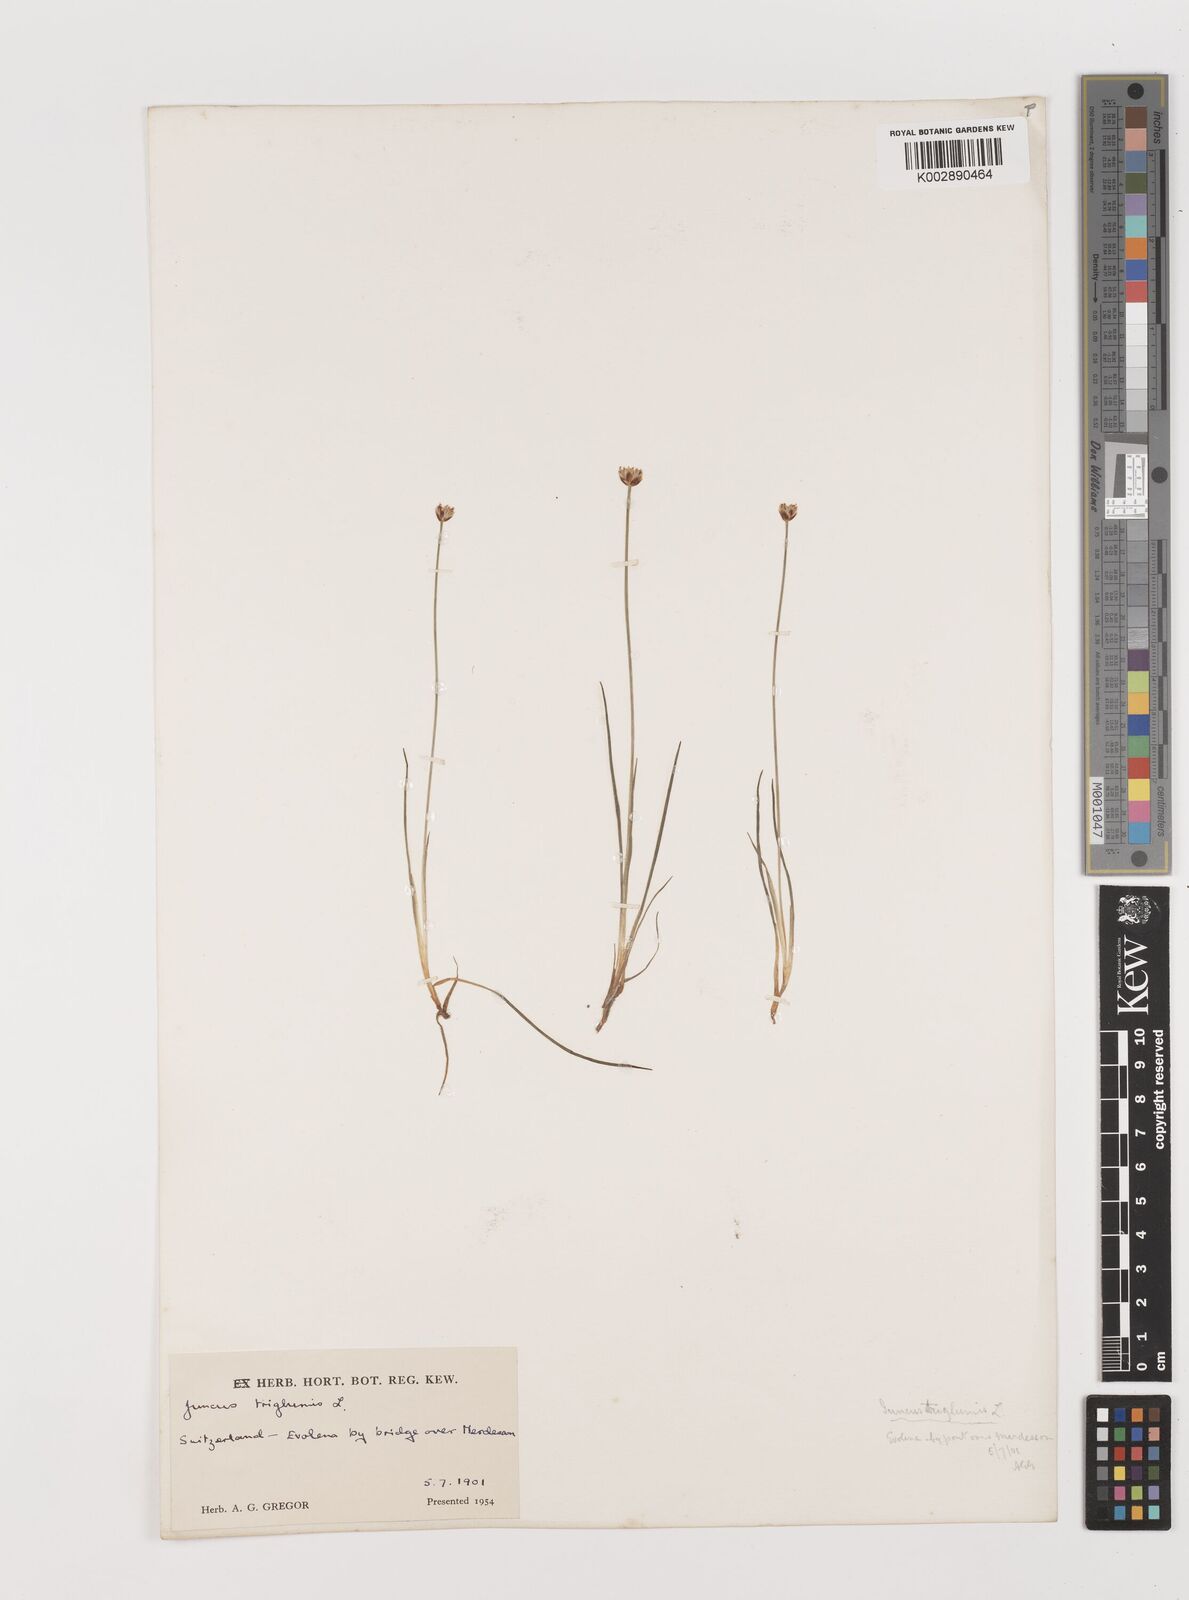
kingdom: Plantae
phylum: Tracheophyta
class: Liliopsida
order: Poales
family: Juncaceae
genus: Juncus
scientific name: Juncus triglumis
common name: Three-flowered rush
